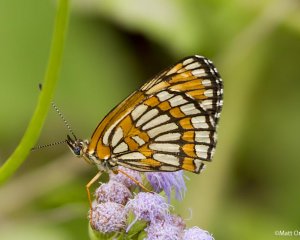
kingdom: Animalia
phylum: Arthropoda
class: Insecta
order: Lepidoptera
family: Nymphalidae
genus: Thessalia
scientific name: Thessalia theona
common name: Theona Checkerspot
